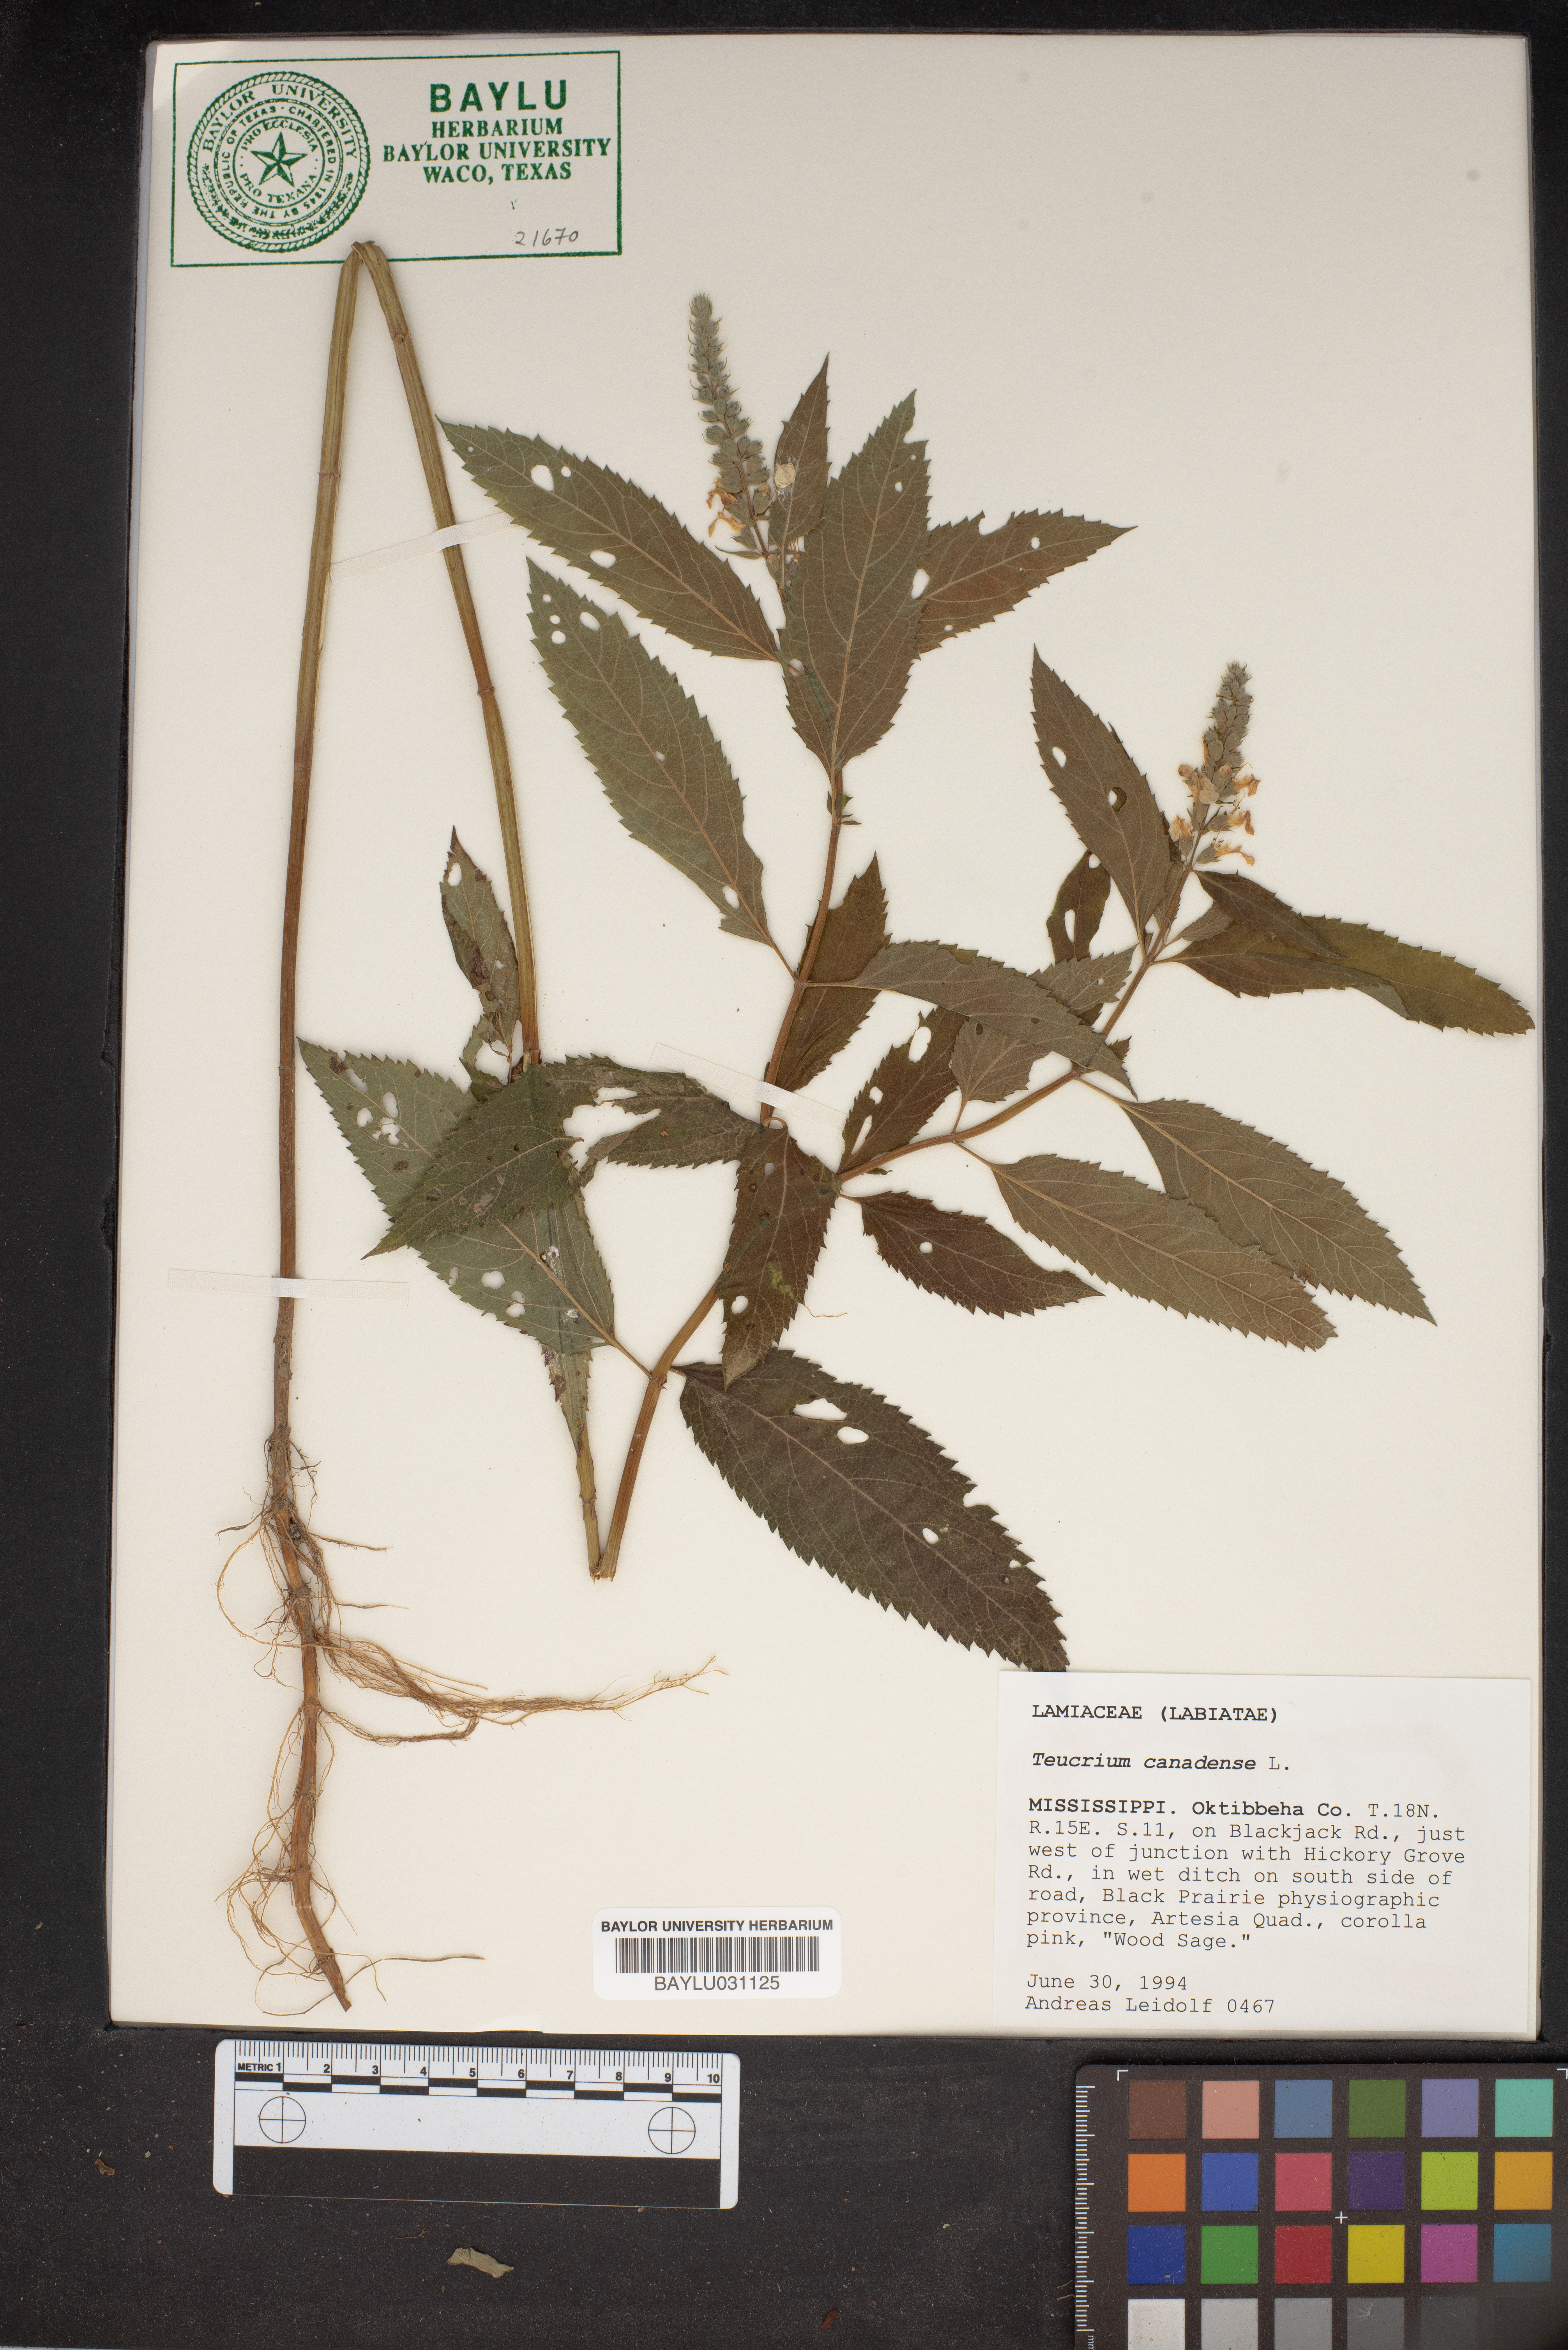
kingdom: Plantae
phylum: Tracheophyta
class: Magnoliopsida
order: Lamiales
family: Lamiaceae
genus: Teucrium
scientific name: Teucrium canadense
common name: American germander
